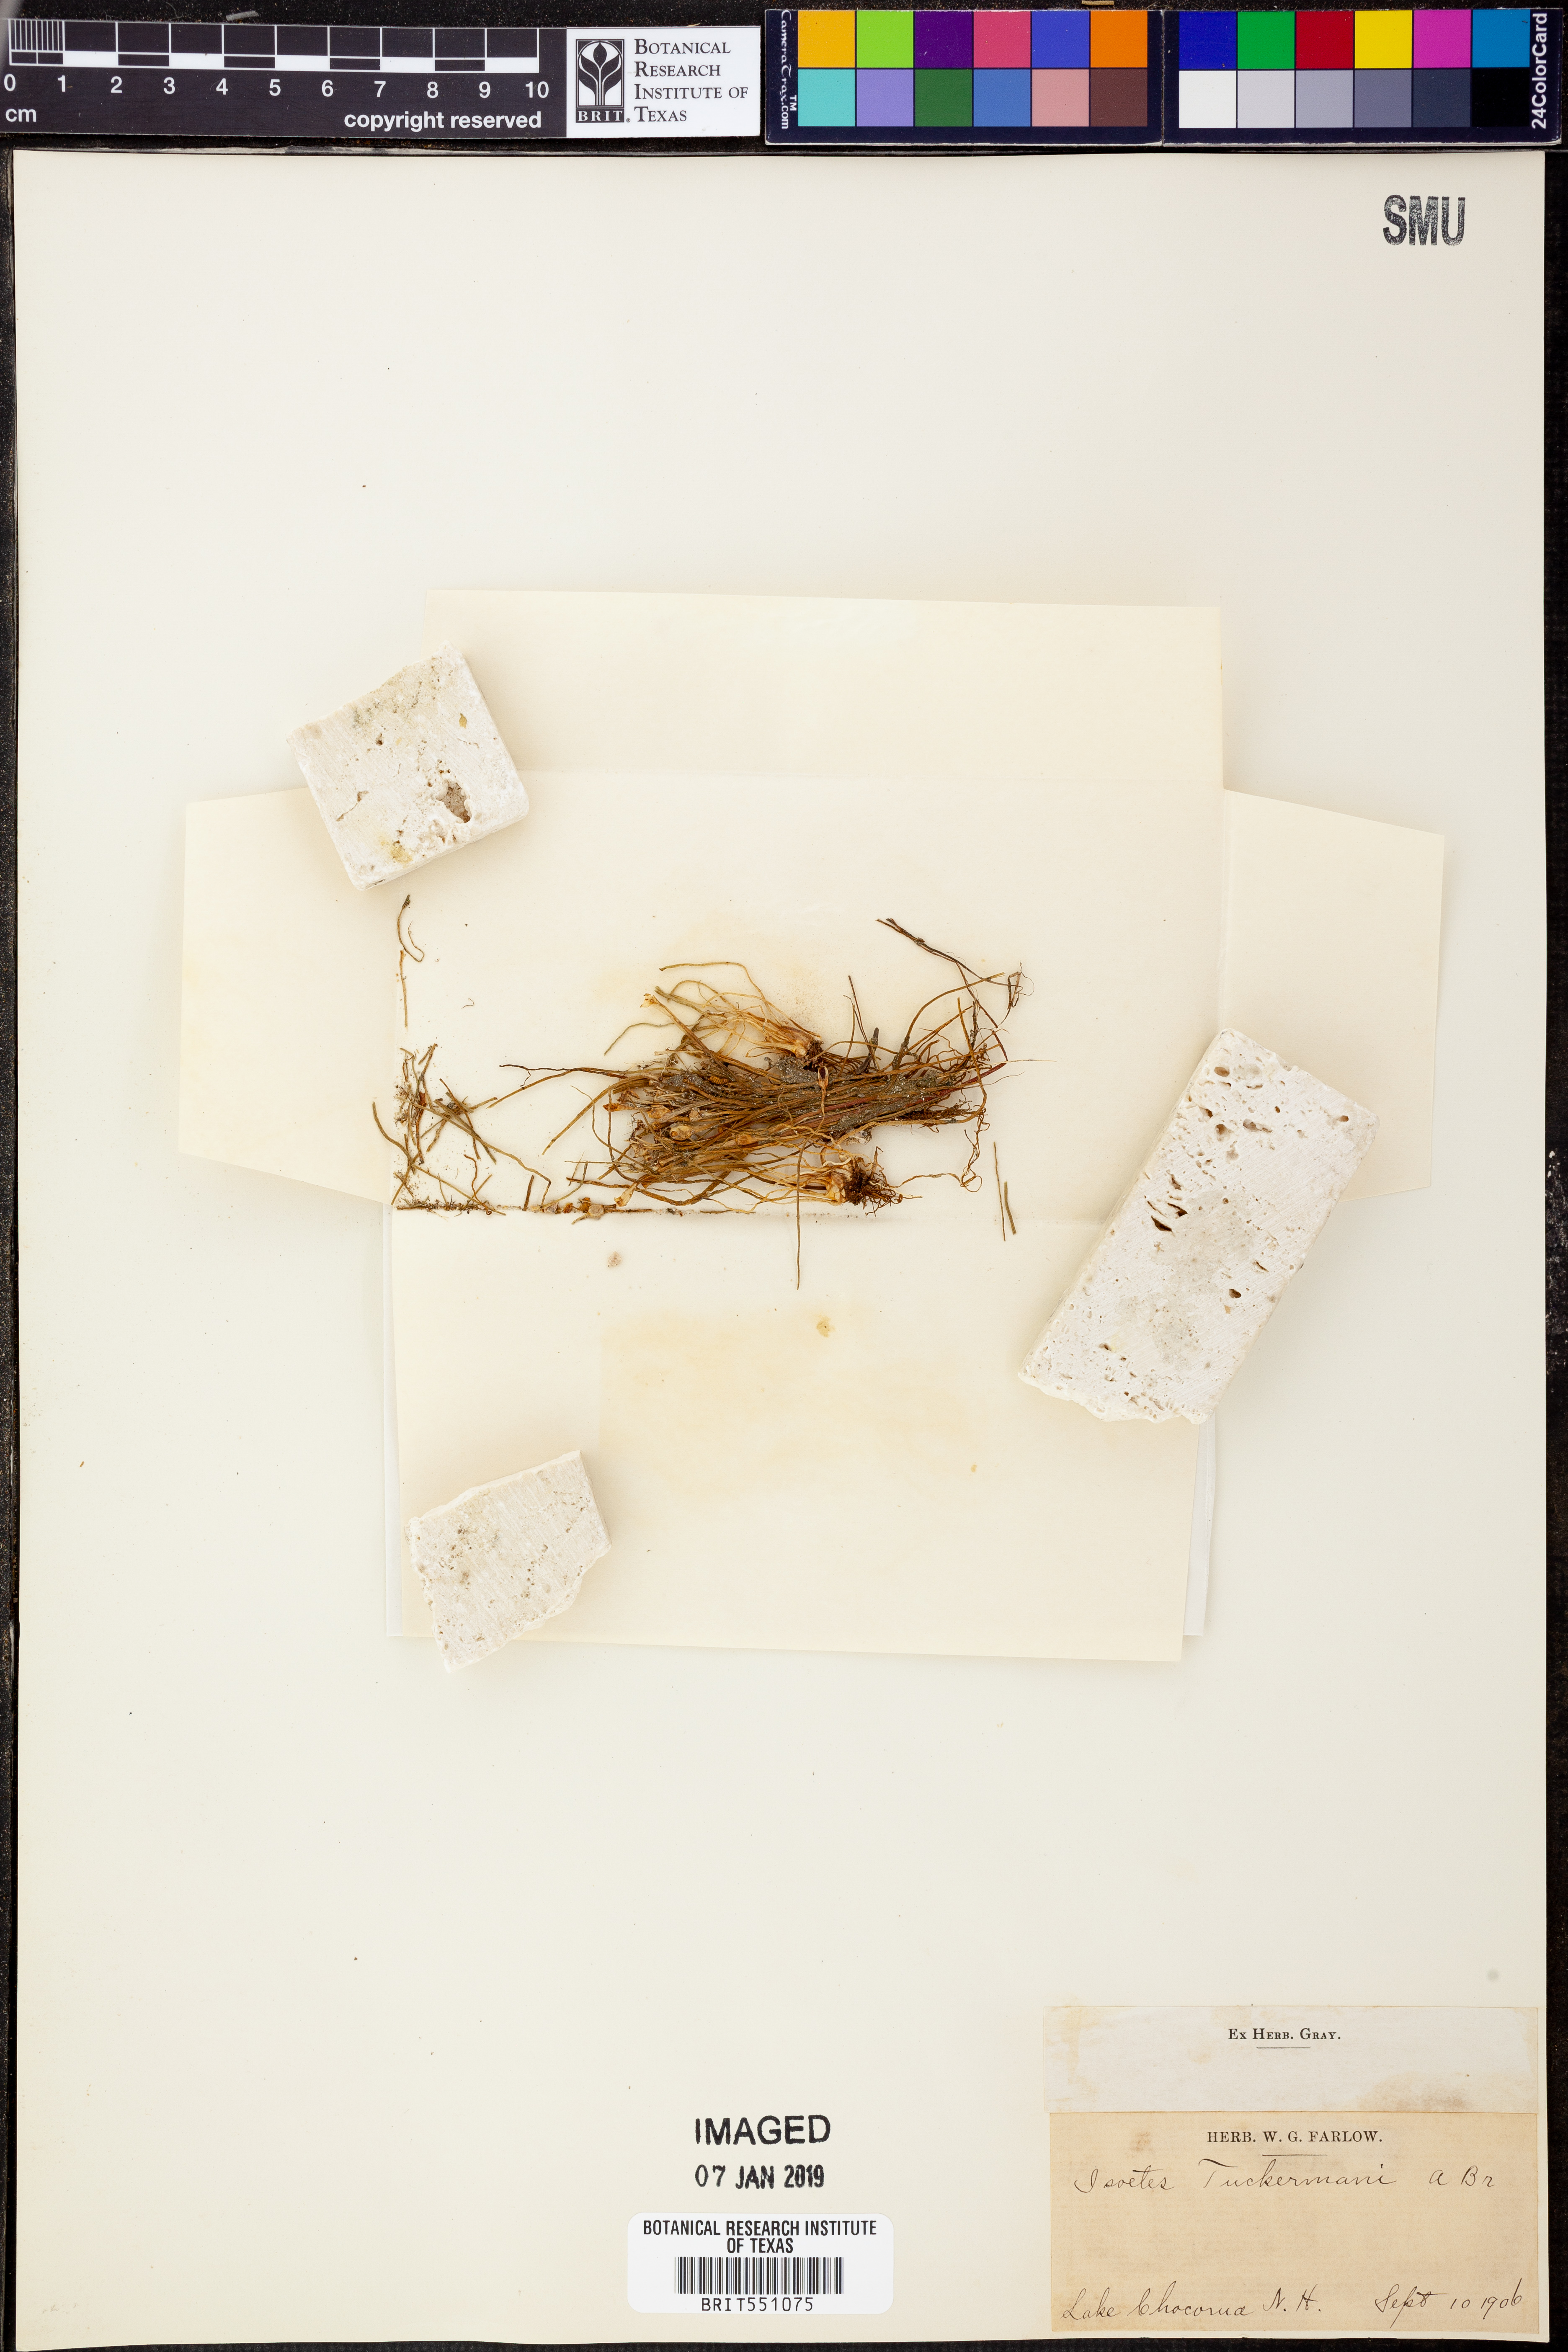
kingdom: Plantae
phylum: Tracheophyta
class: Lycopodiopsida
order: Isoetales
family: Isoetaceae
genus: Isoetes
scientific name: Isoetes tuckermanii
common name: Tuckerman's quillwort
